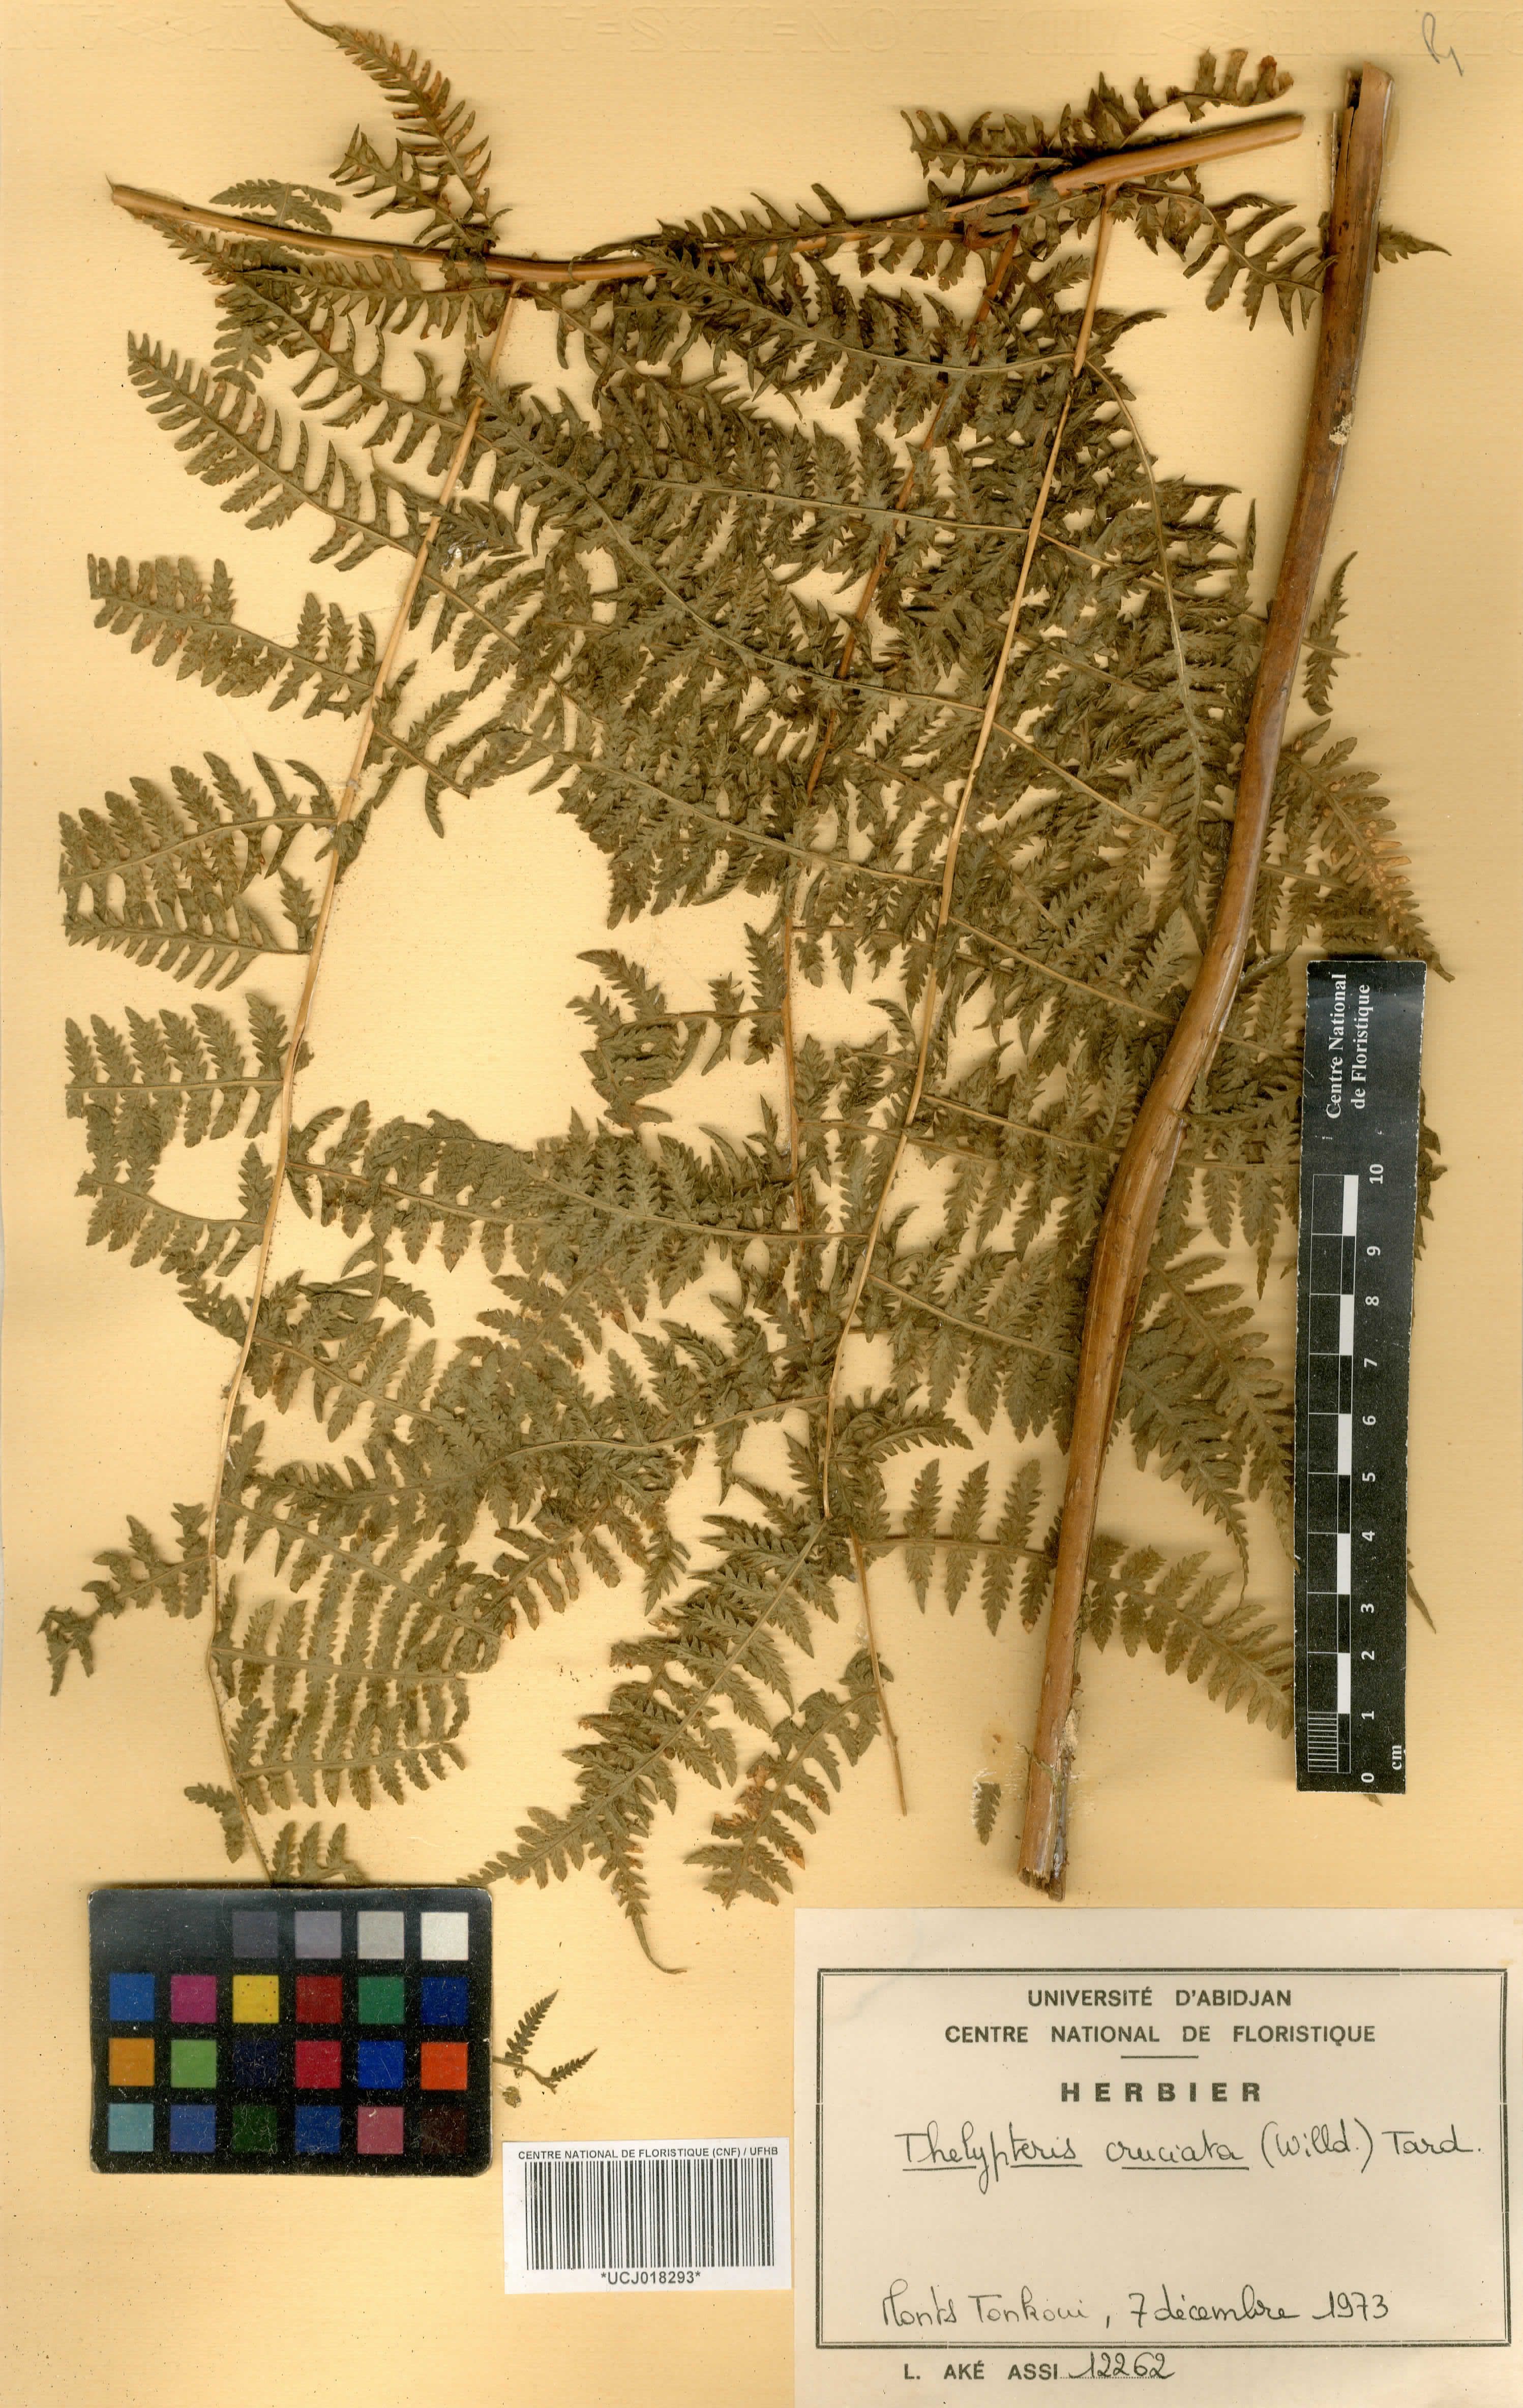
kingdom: Plantae
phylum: Tracheophyta
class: Polypodiopsida
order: Polypodiales
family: Thelypteridaceae
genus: Pseudophegopteris
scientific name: Pseudophegopteris cruciata
